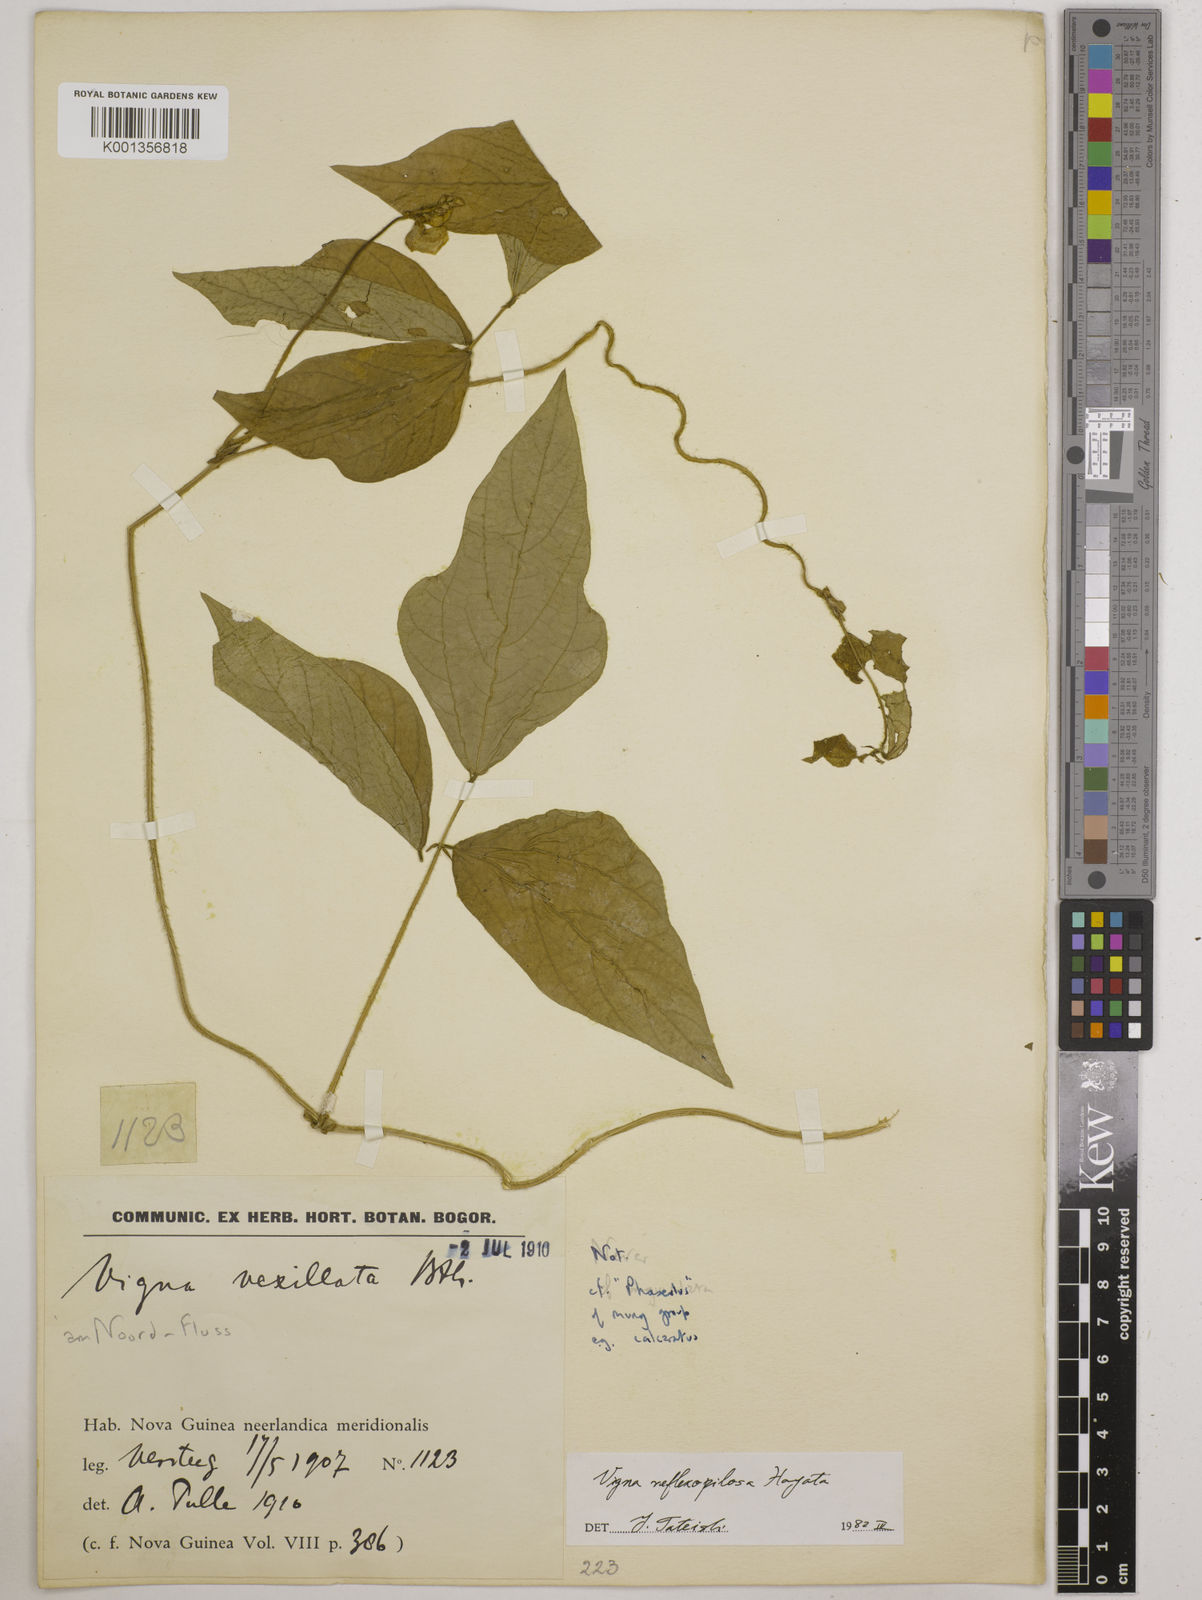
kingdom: Plantae
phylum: Tracheophyta
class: Magnoliopsida
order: Fabales
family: Fabaceae
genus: Vigna
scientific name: Vigna reflexopilosa
